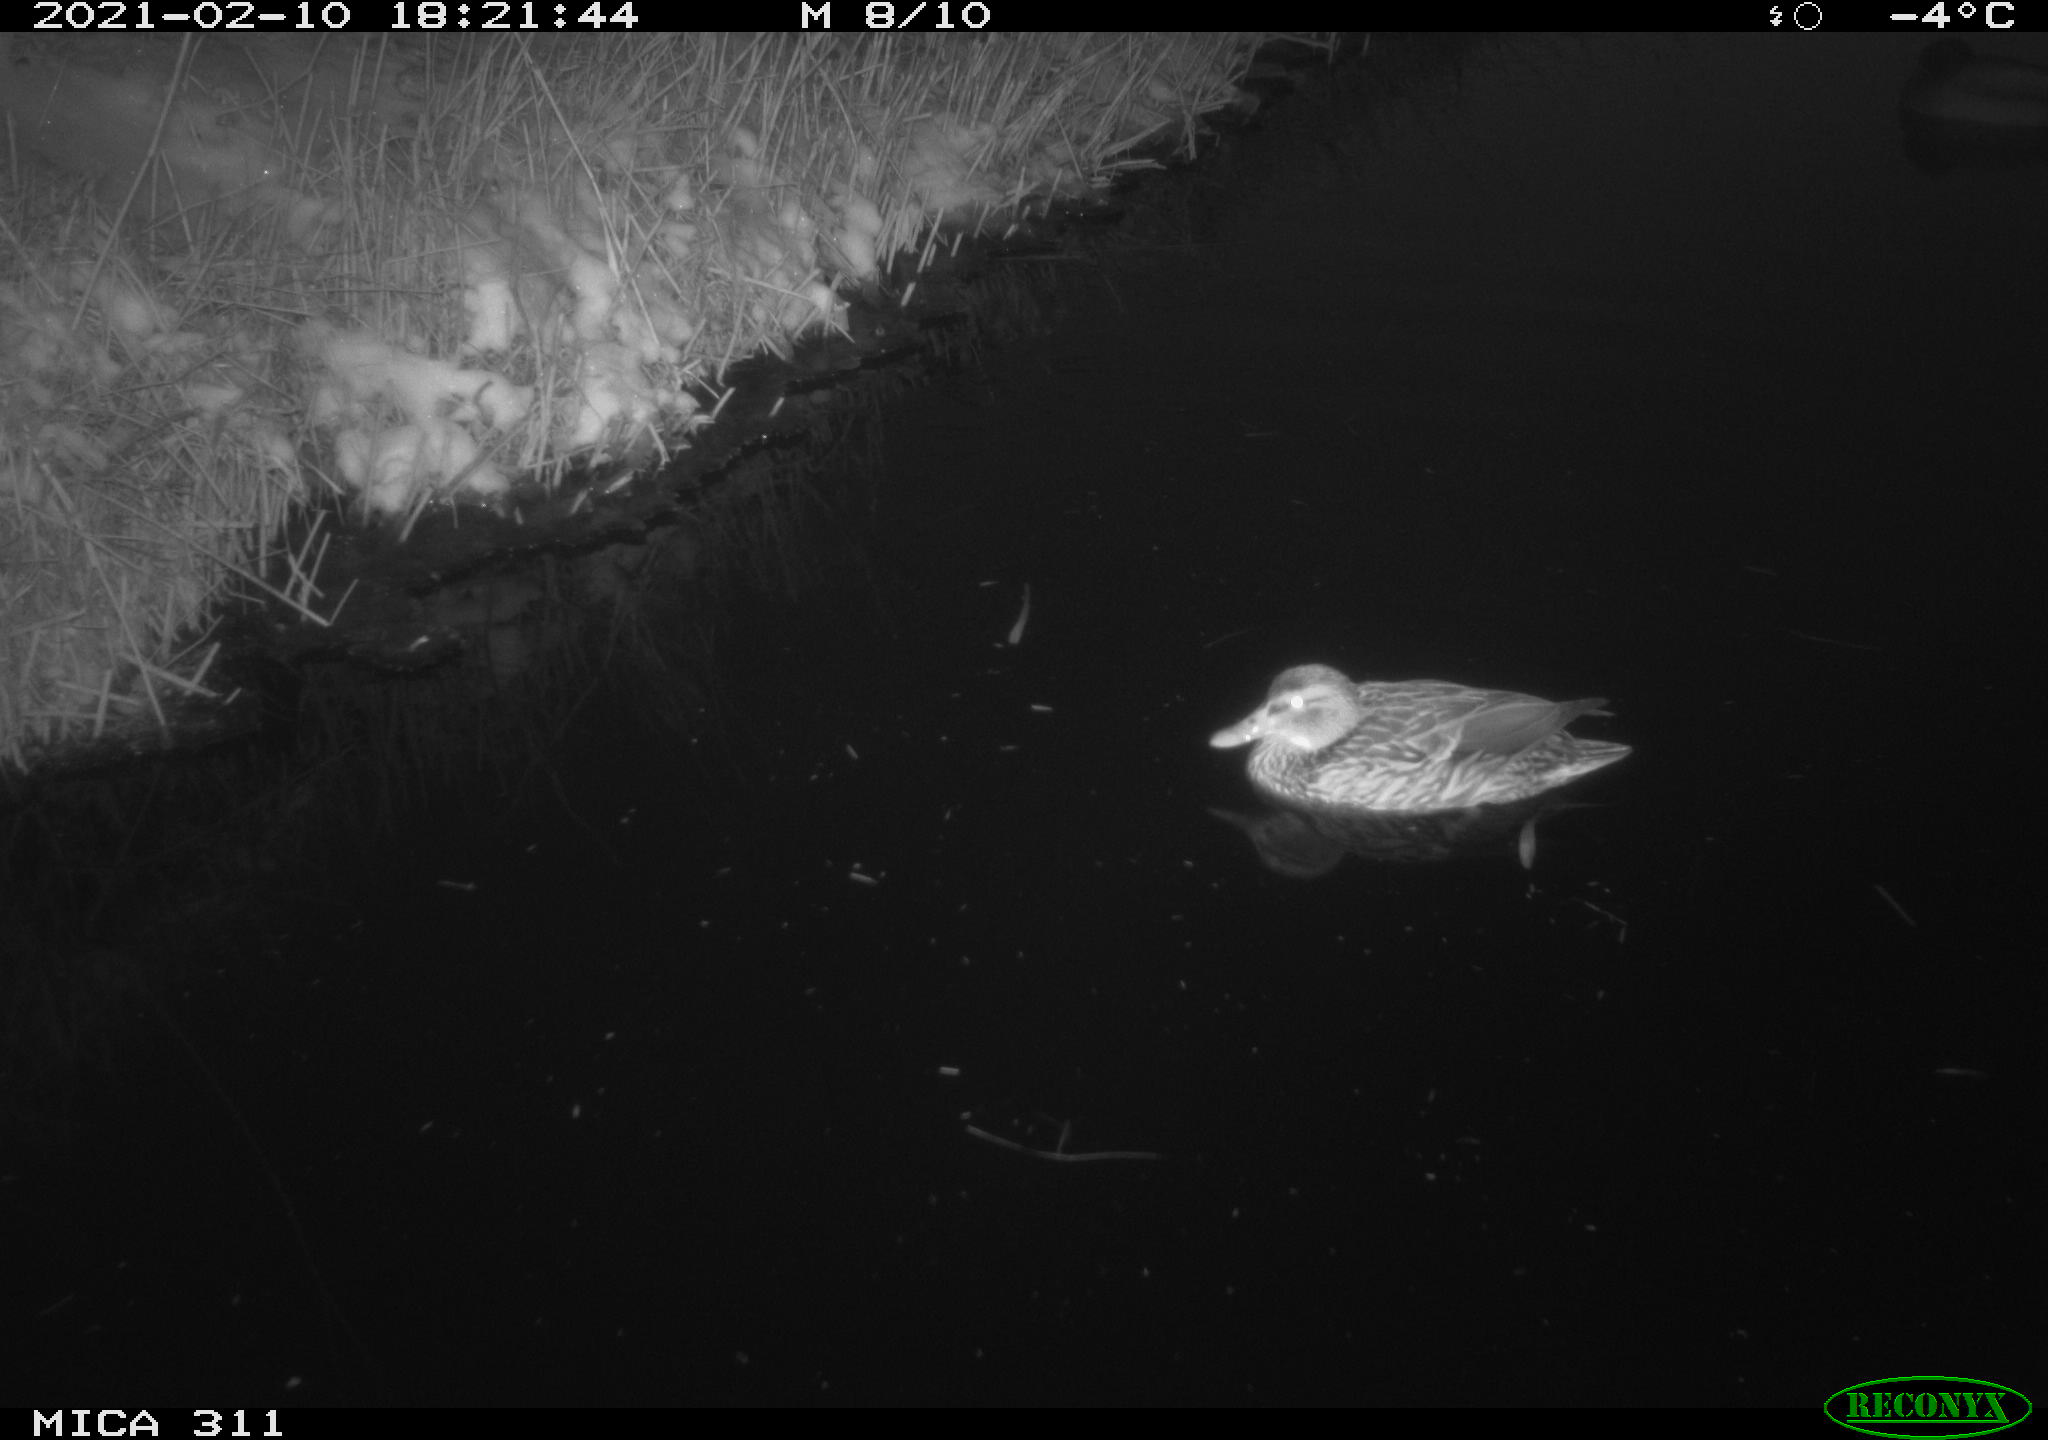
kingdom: Animalia
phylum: Chordata
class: Aves
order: Anseriformes
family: Anatidae
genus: Anas
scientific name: Anas platyrhynchos
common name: Mallard
